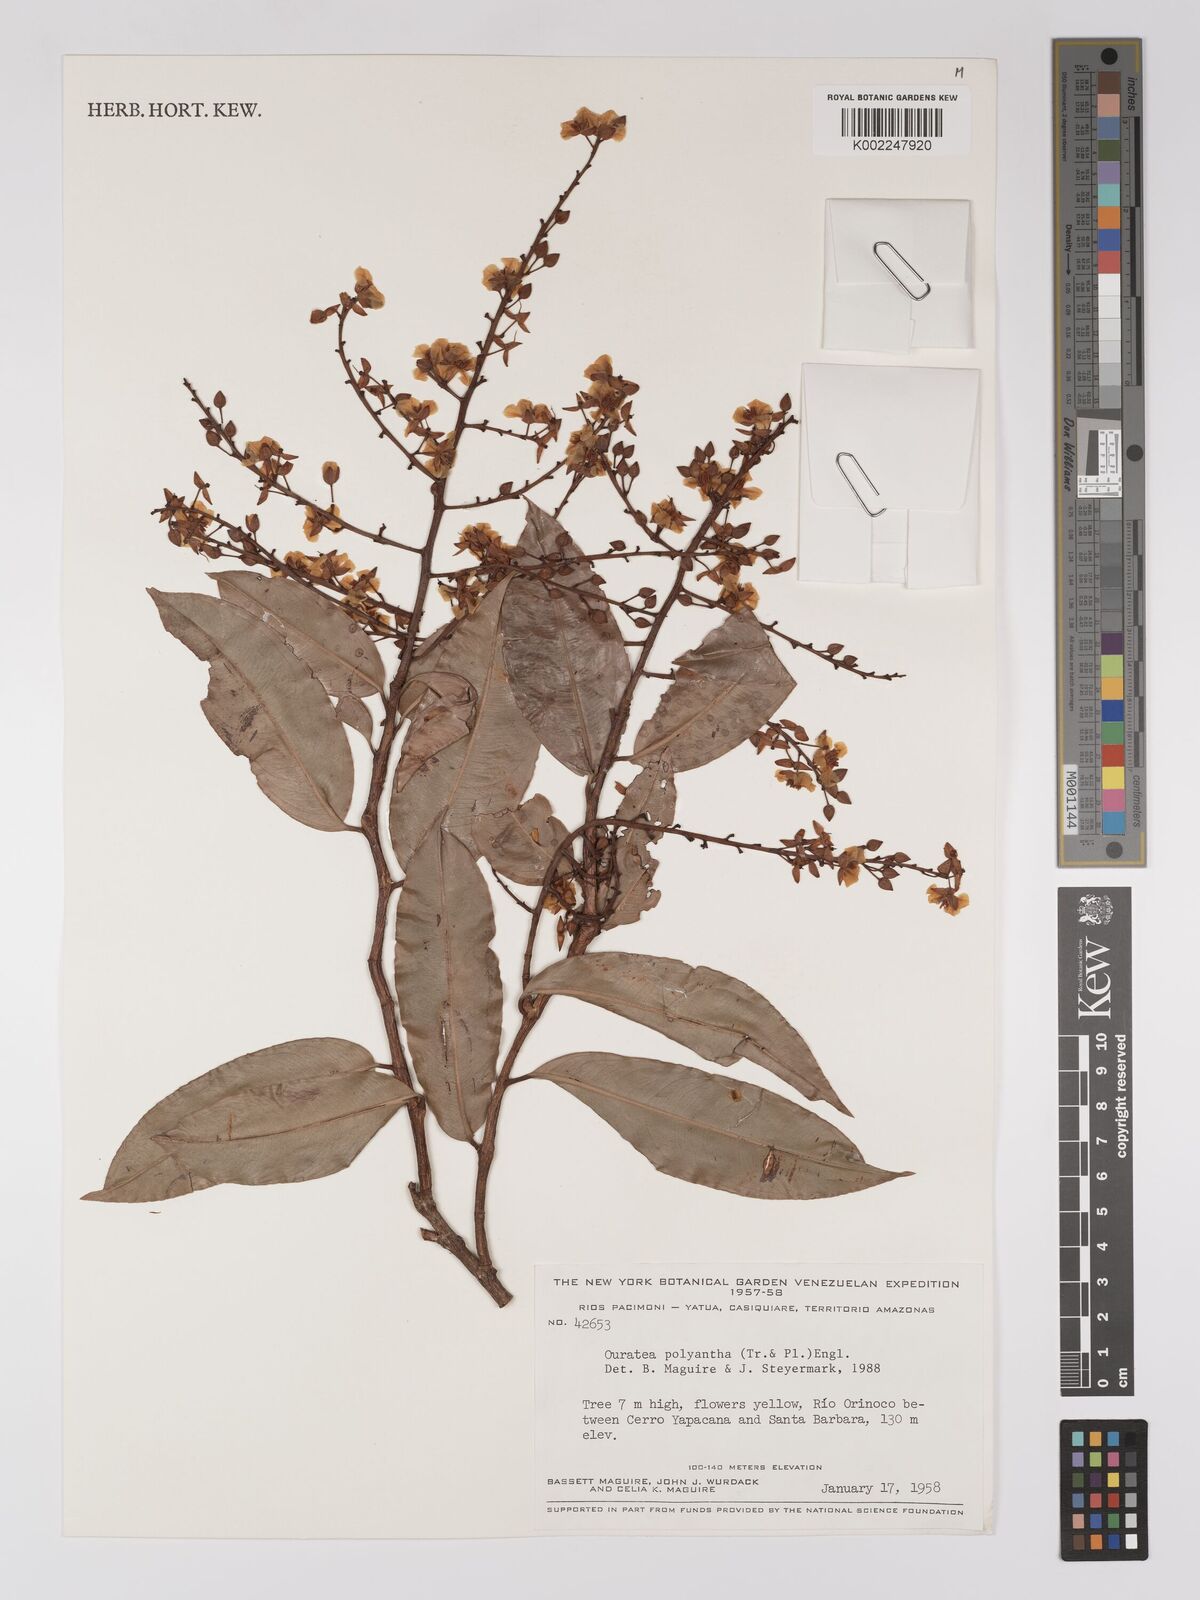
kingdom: Plantae
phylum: Tracheophyta
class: Magnoliopsida
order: Malpighiales
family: Ochnaceae
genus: Ouratea
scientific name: Ouratea polyantha
